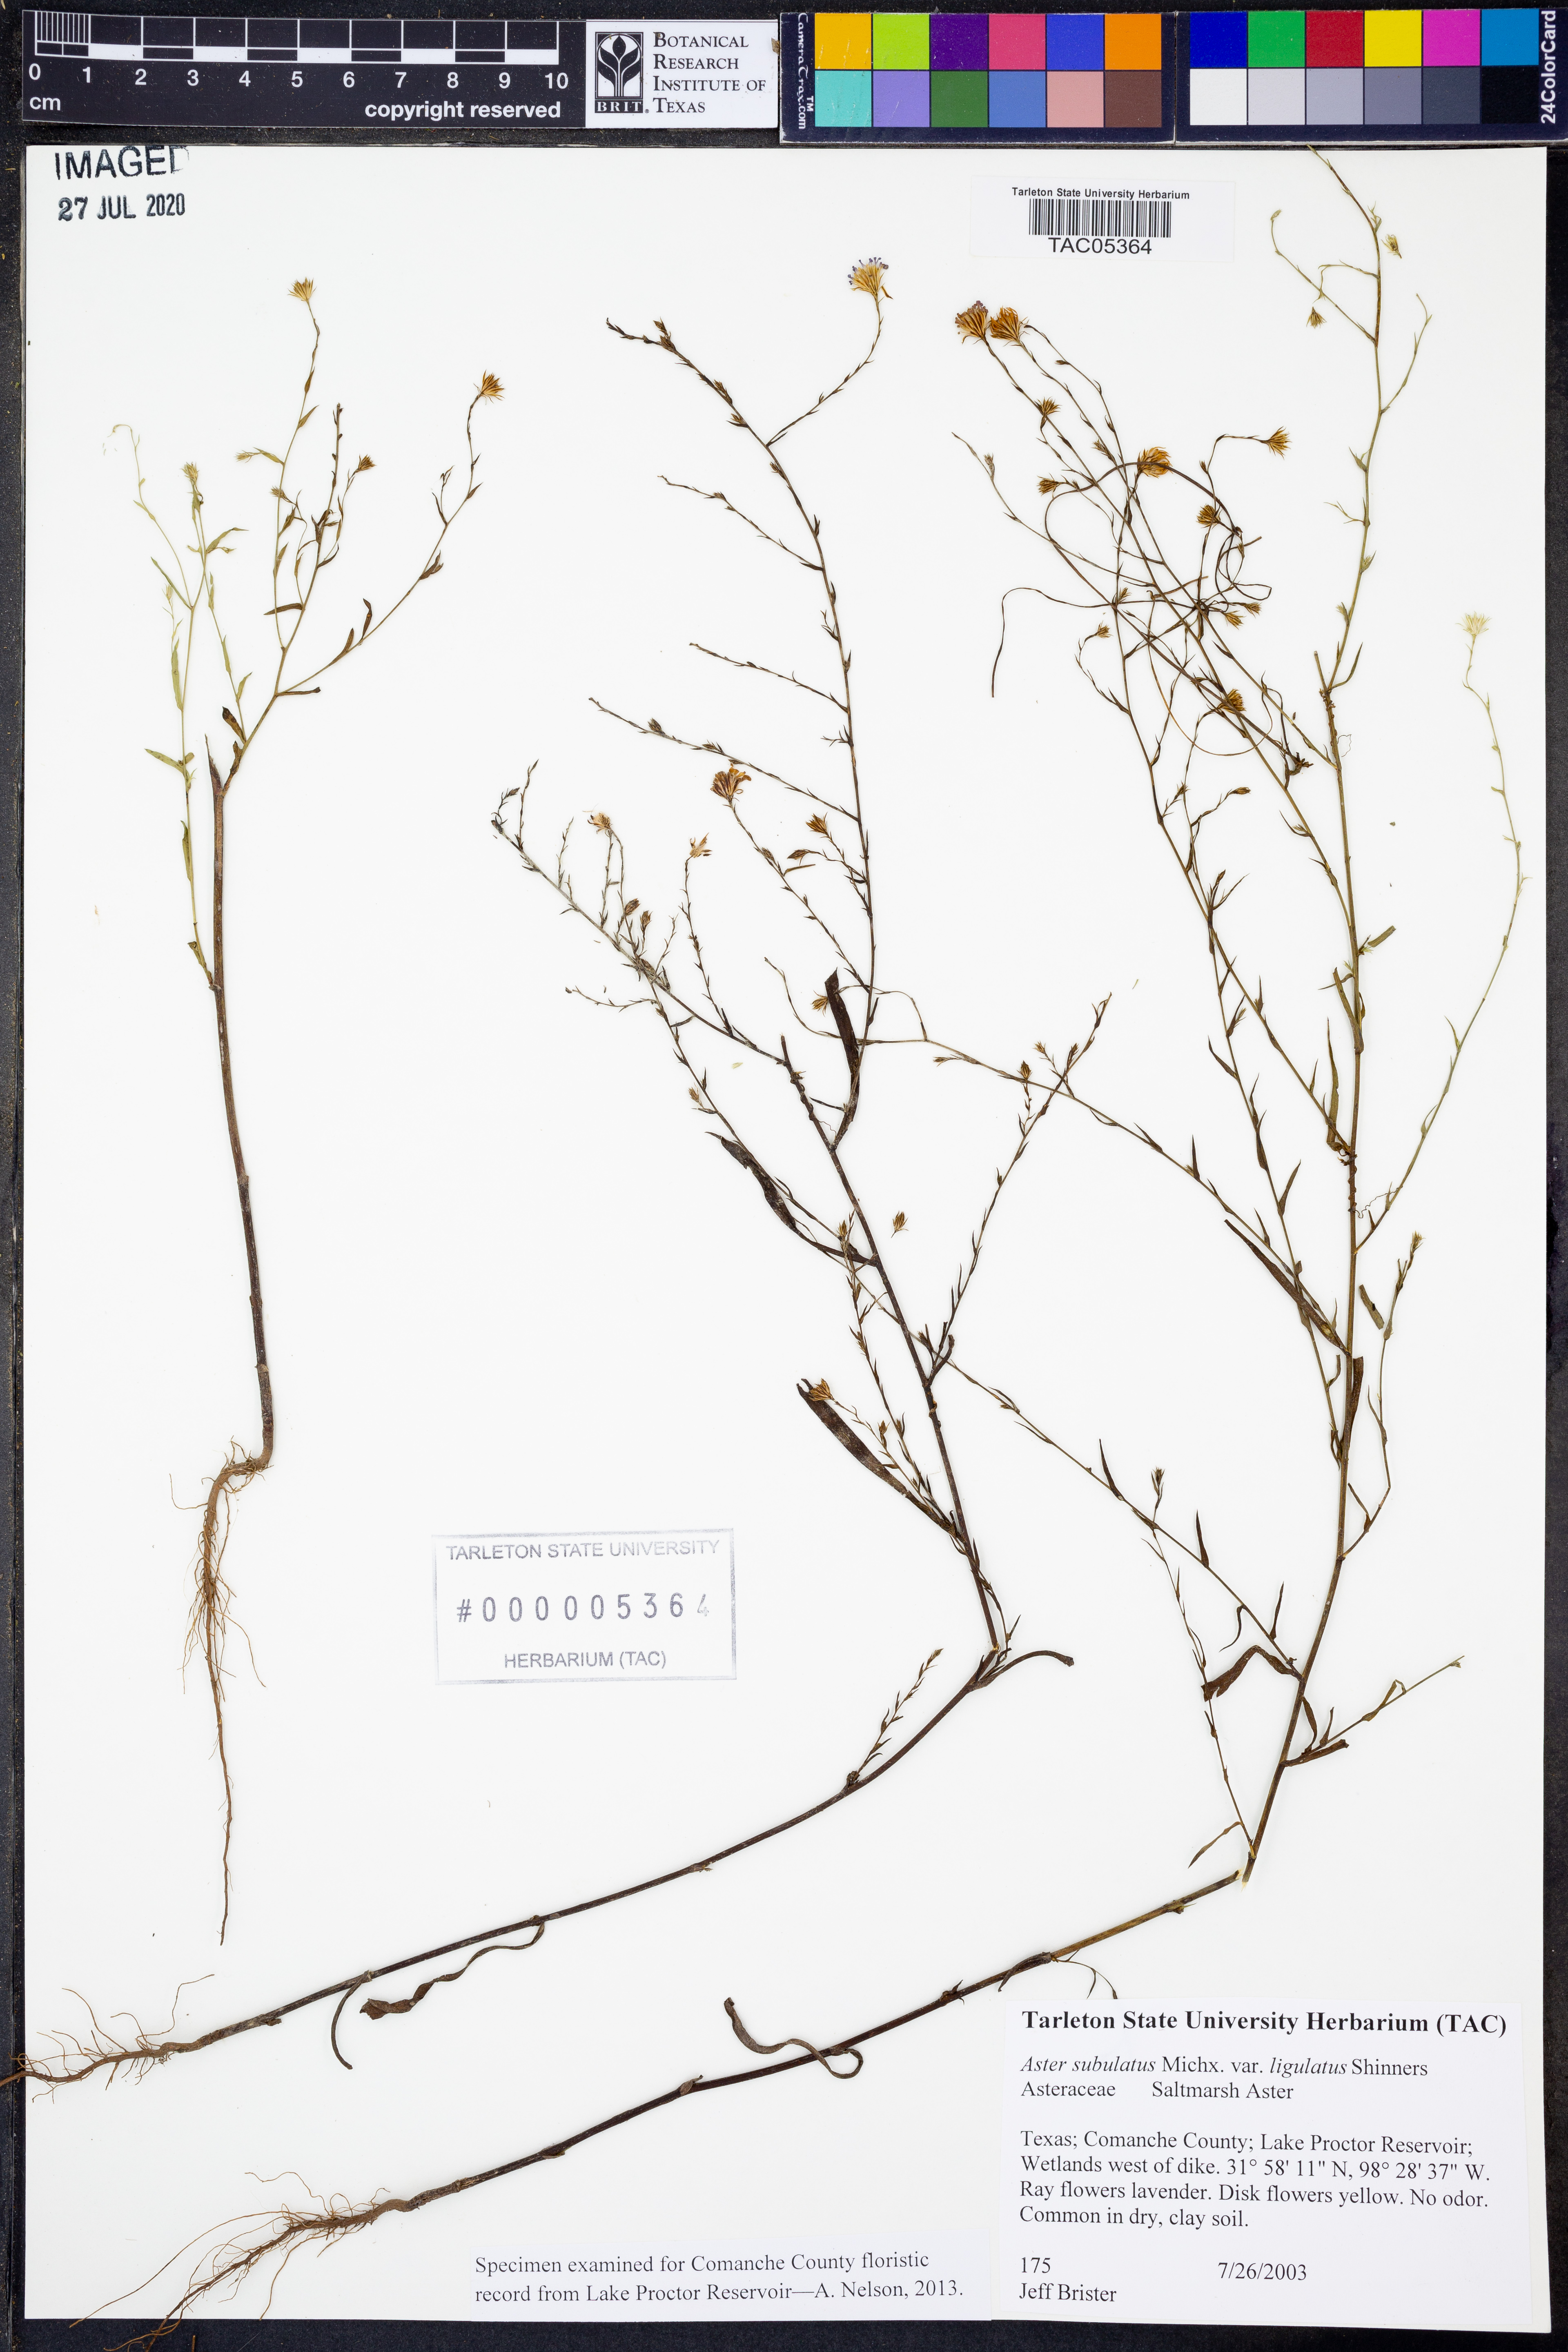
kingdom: Plantae
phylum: Tracheophyta
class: Magnoliopsida
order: Asterales
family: Asteraceae
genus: Symphyotrichum
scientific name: Symphyotrichum divaricatum
